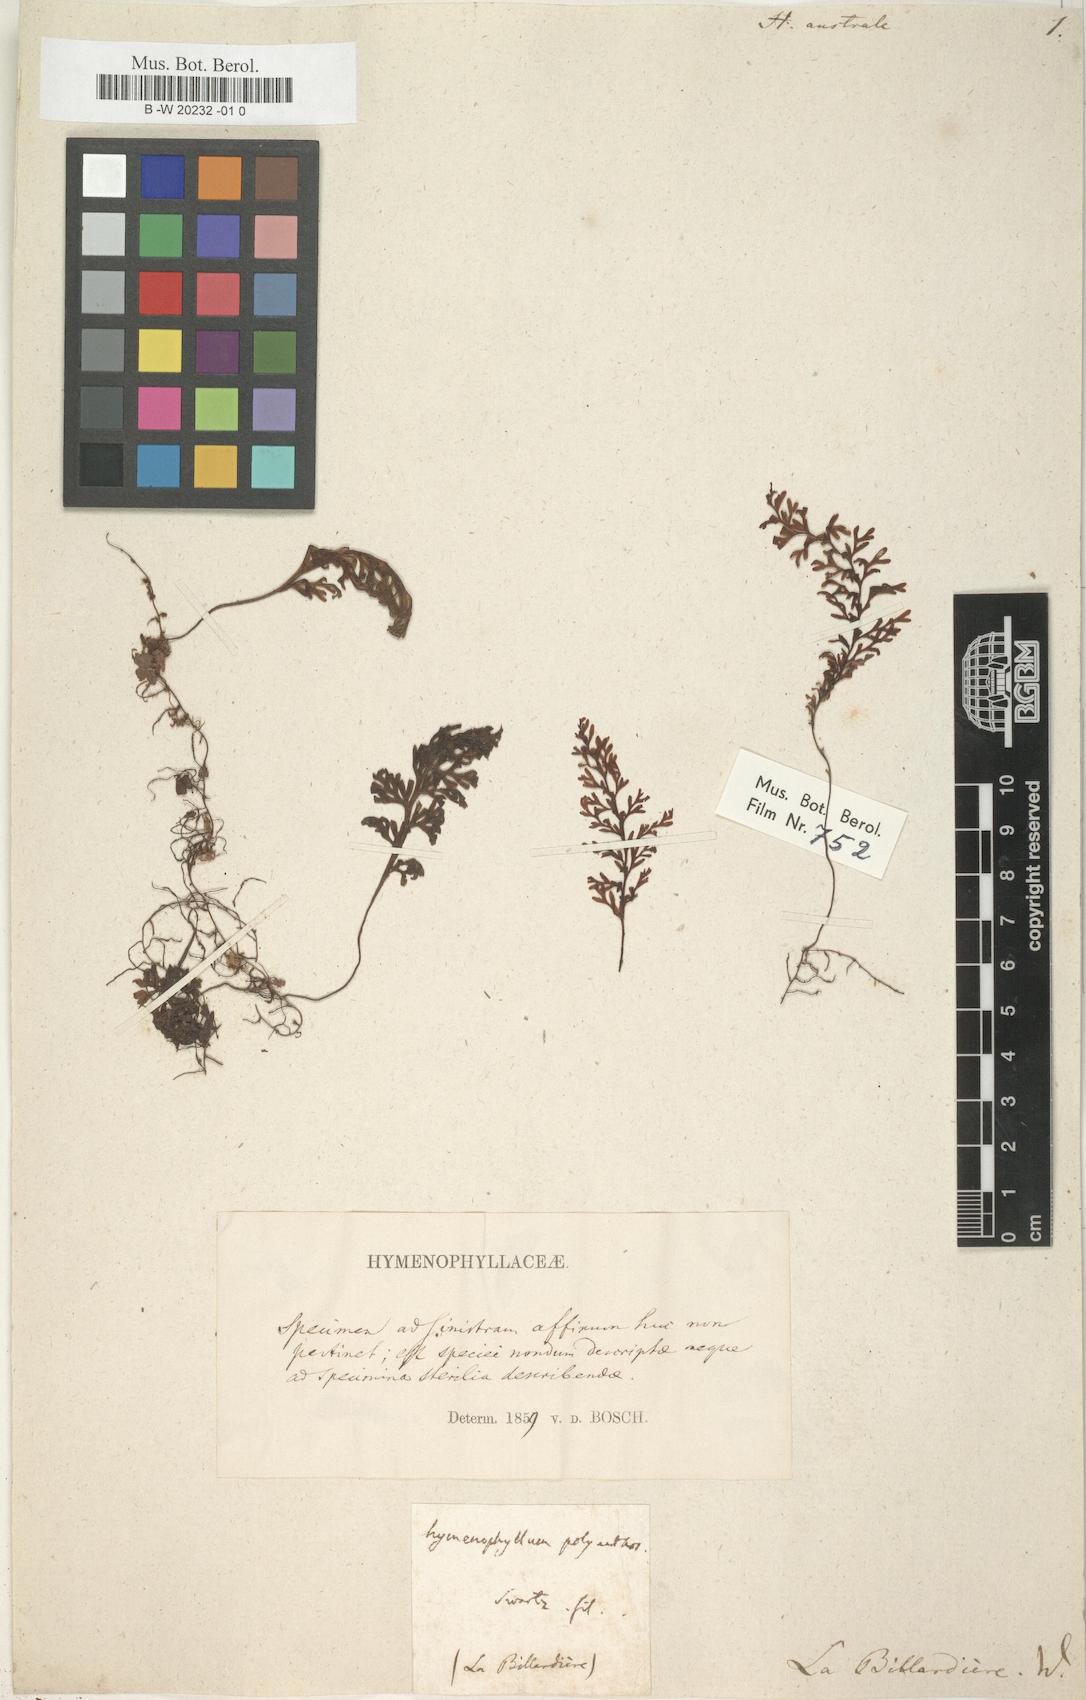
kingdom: Plantae
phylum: Tracheophyta
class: Polypodiopsida
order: Hymenophyllales
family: Hymenophyllaceae
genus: Hymenophyllum
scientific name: Hymenophyllum australe
